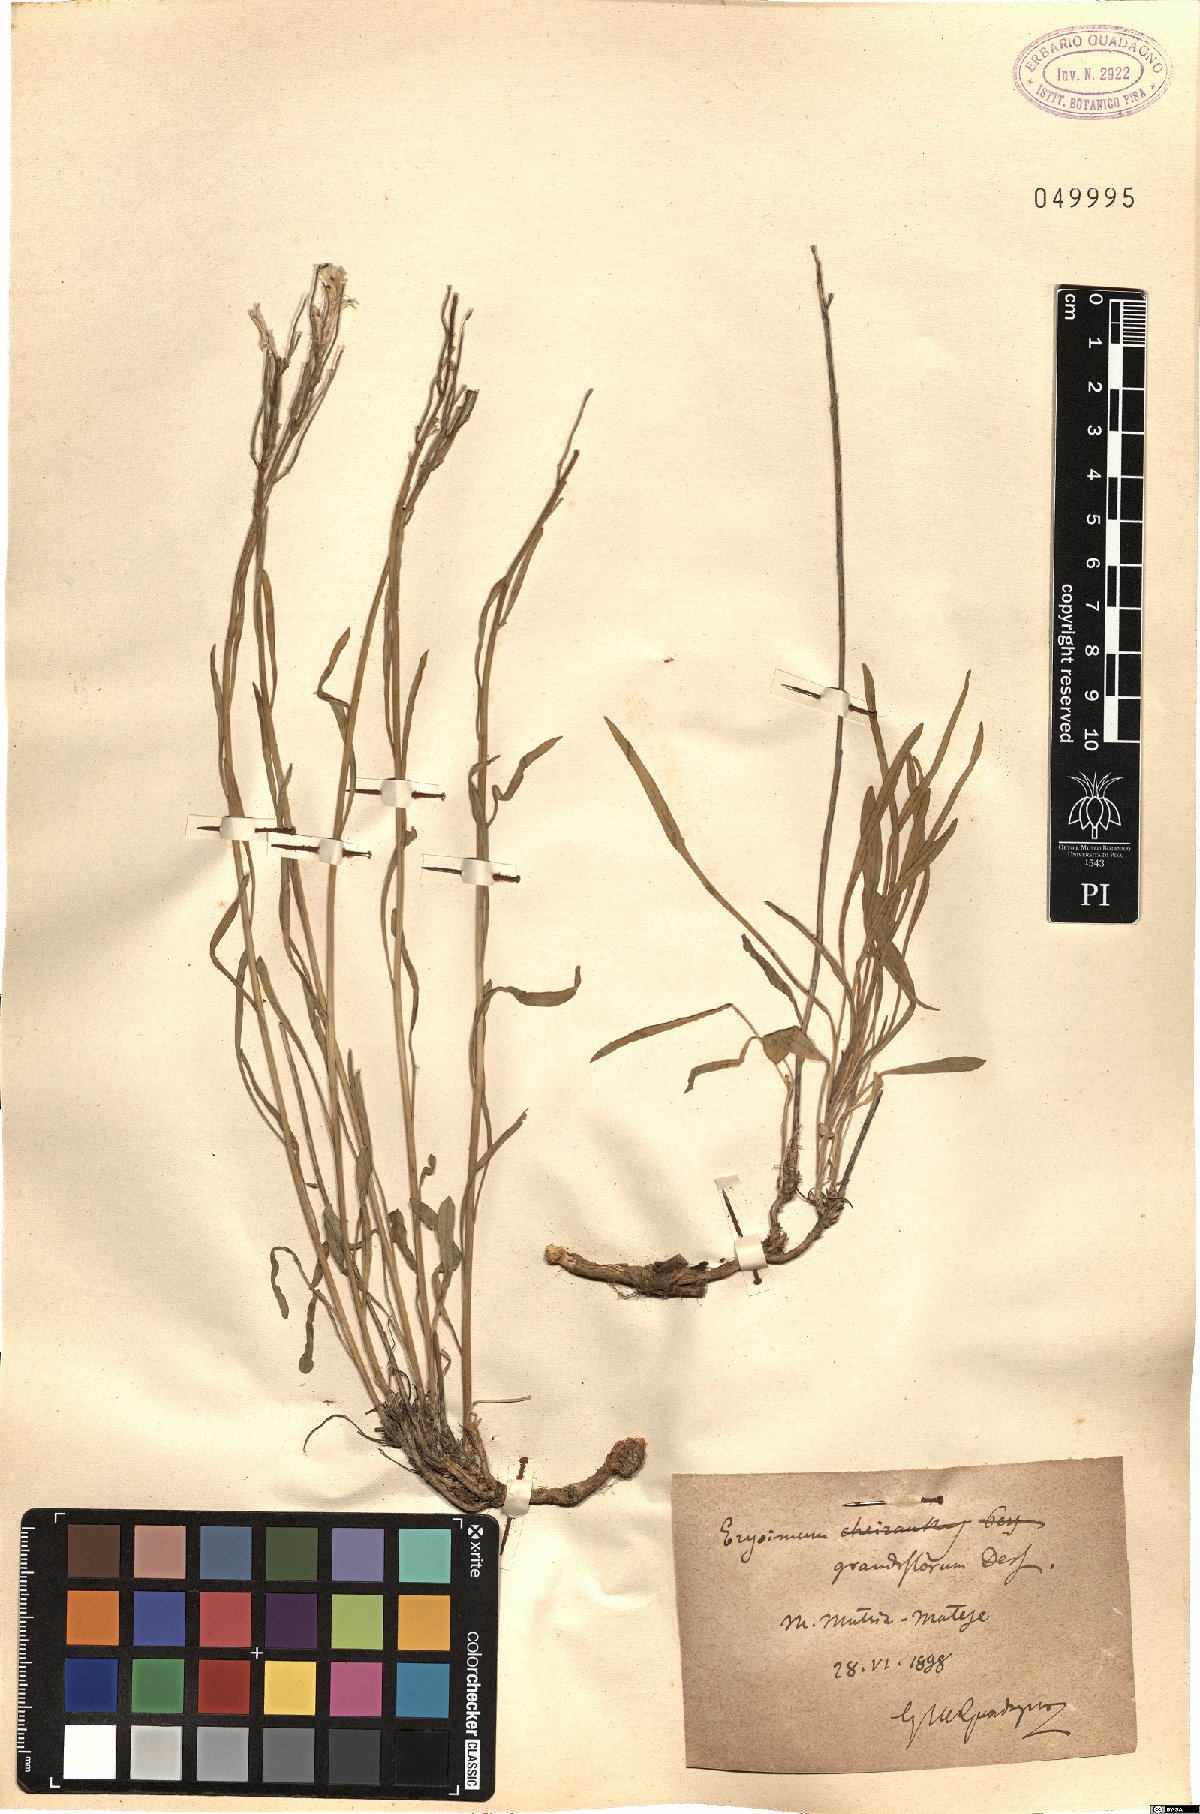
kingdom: Plantae
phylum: Tracheophyta
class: Magnoliopsida
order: Brassicales
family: Brassicaceae
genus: Erysimum
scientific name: Erysimum duriaei
